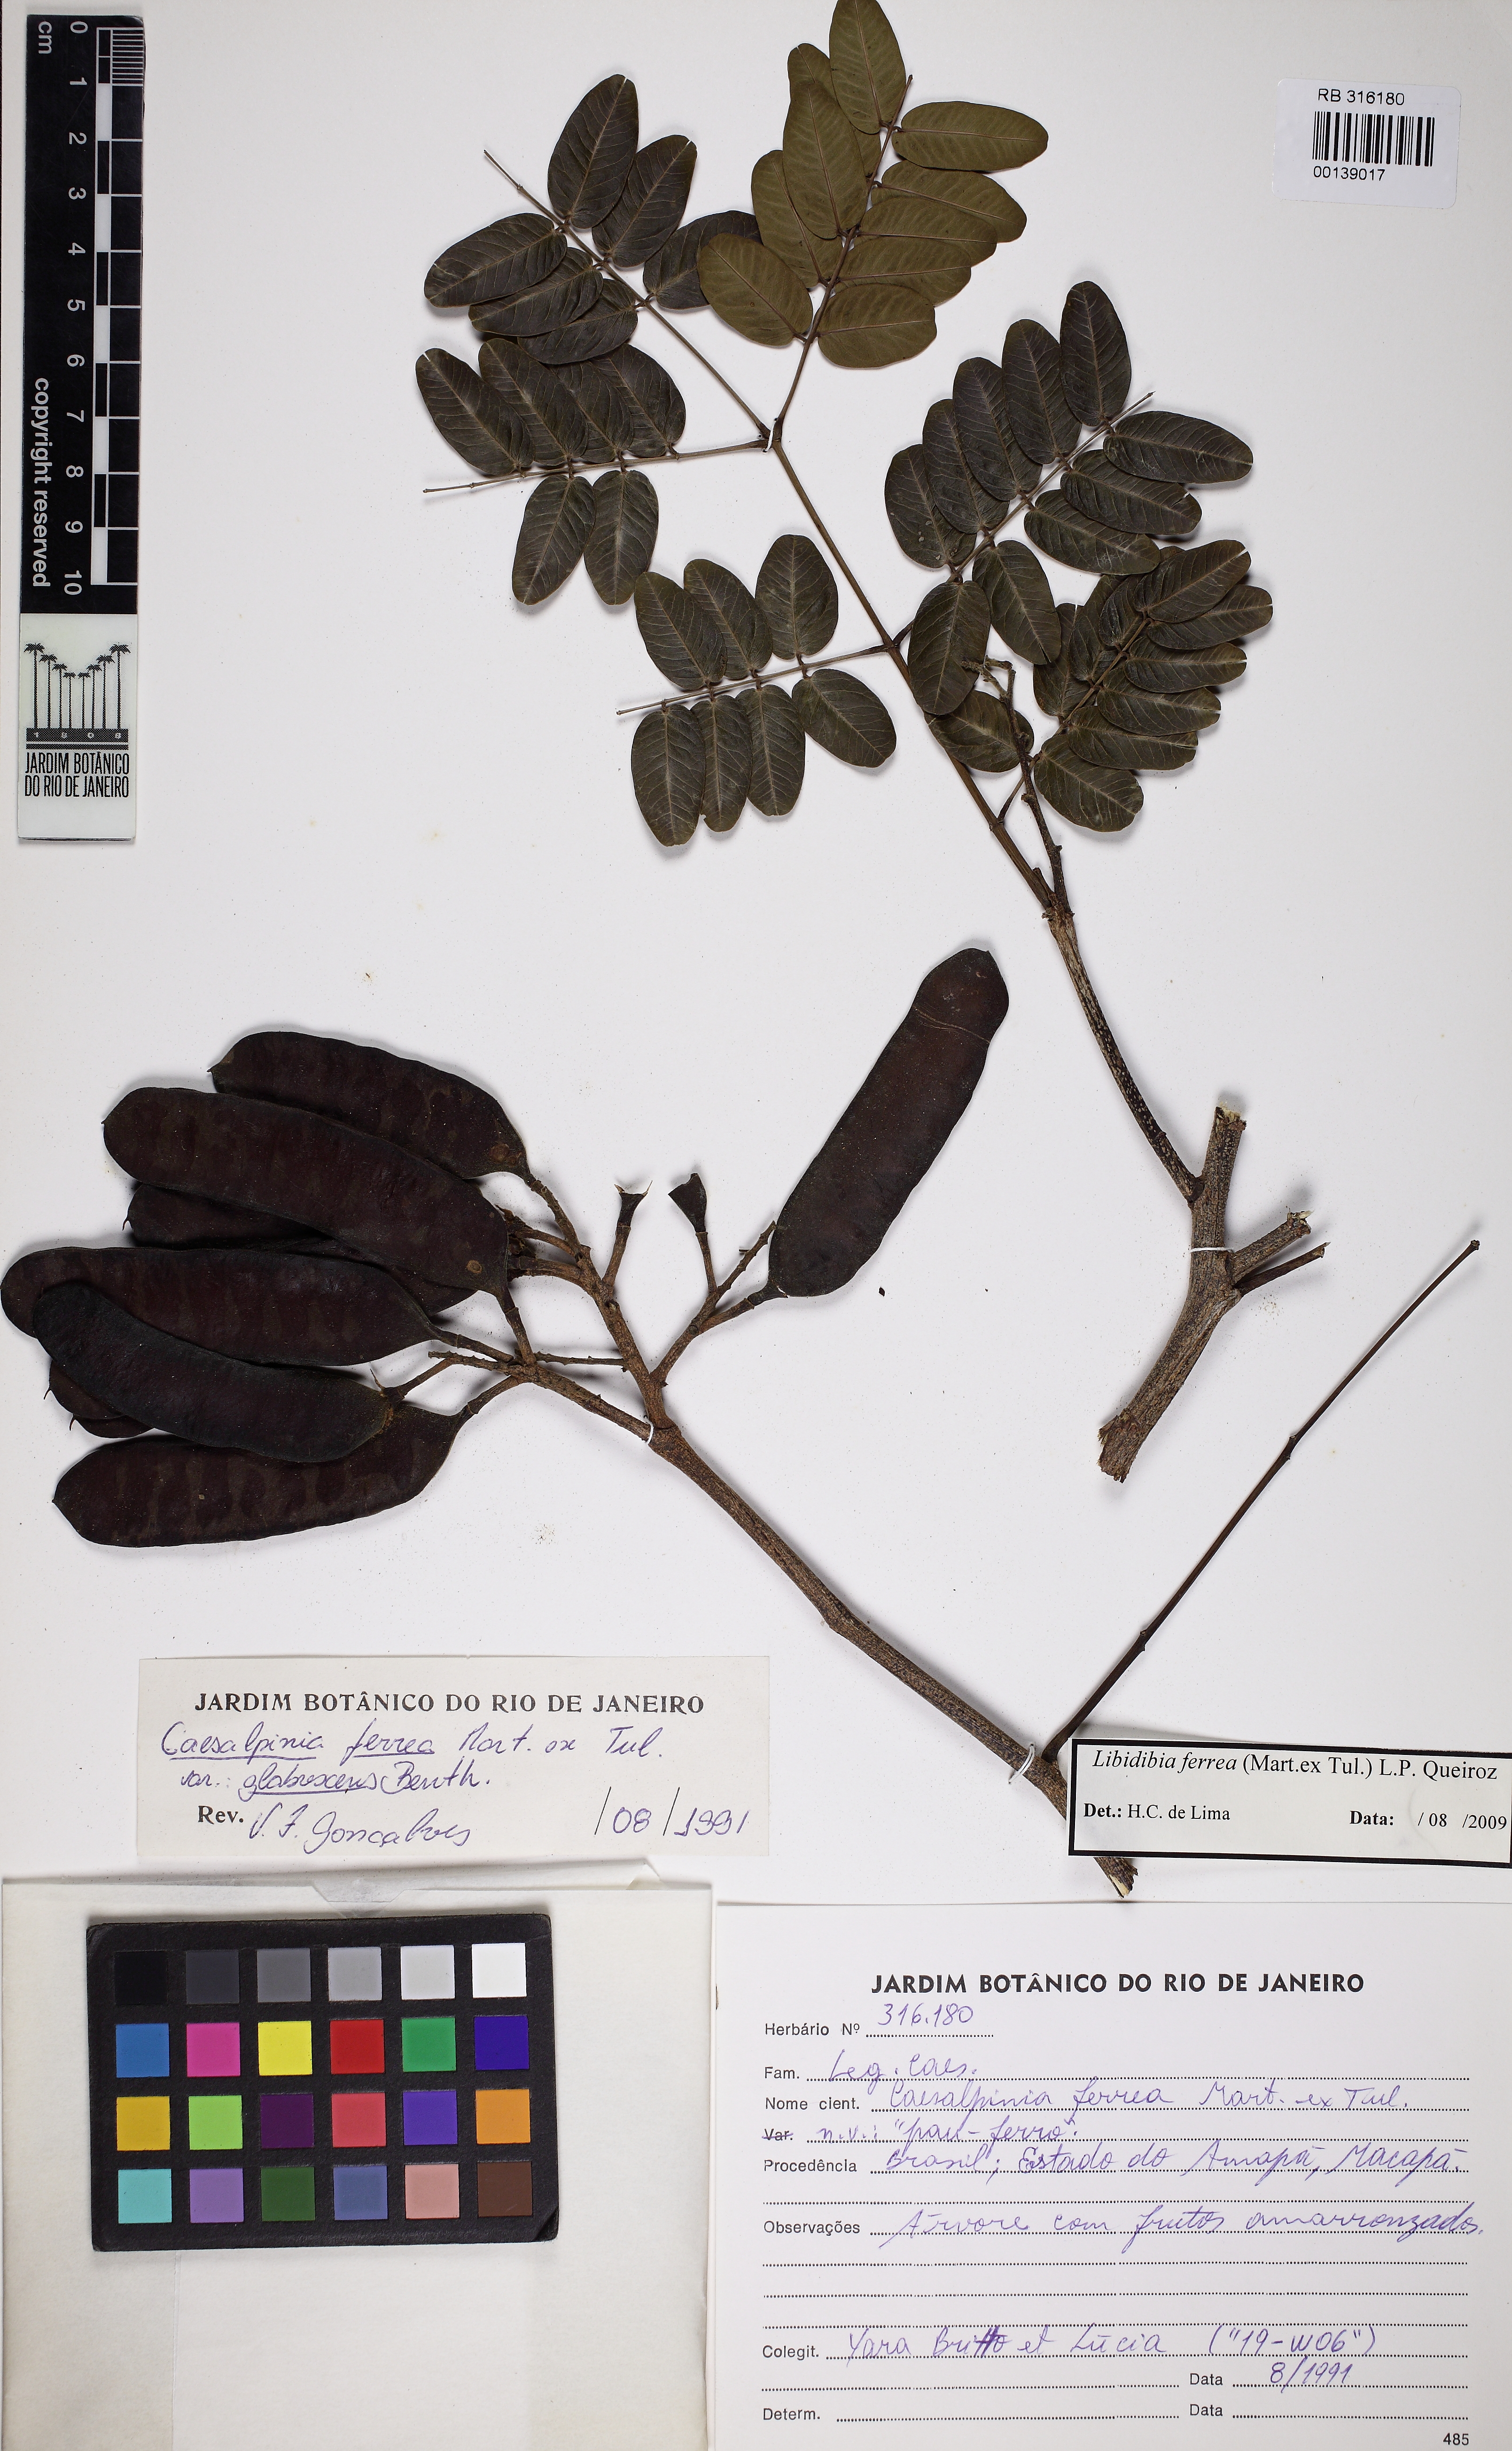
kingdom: Plantae
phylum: Tracheophyta
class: Magnoliopsida
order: Fabales
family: Fabaceae
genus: Libidibia
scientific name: Libidibia ferrea
